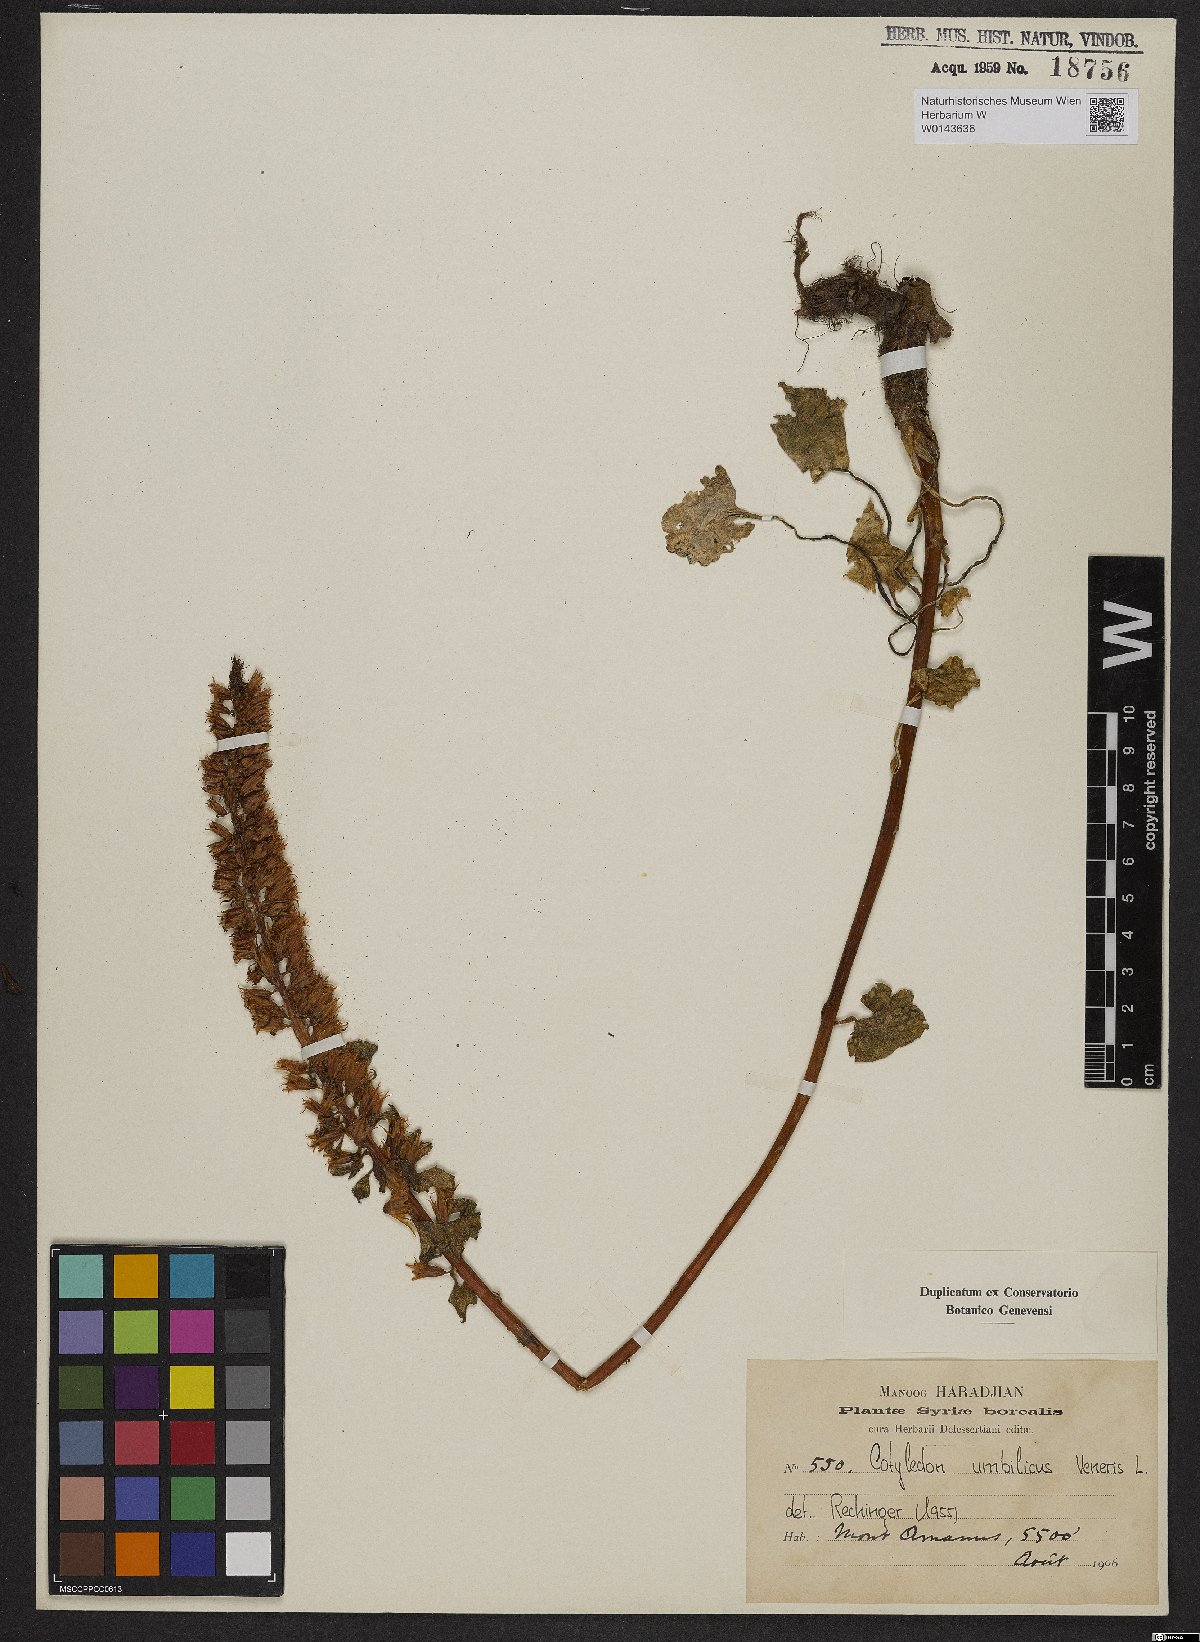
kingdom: Plantae
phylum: Tracheophyta
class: Magnoliopsida
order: Saxifragales
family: Crassulaceae
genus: Umbilicus
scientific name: Umbilicus rupestris
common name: Navelwort
